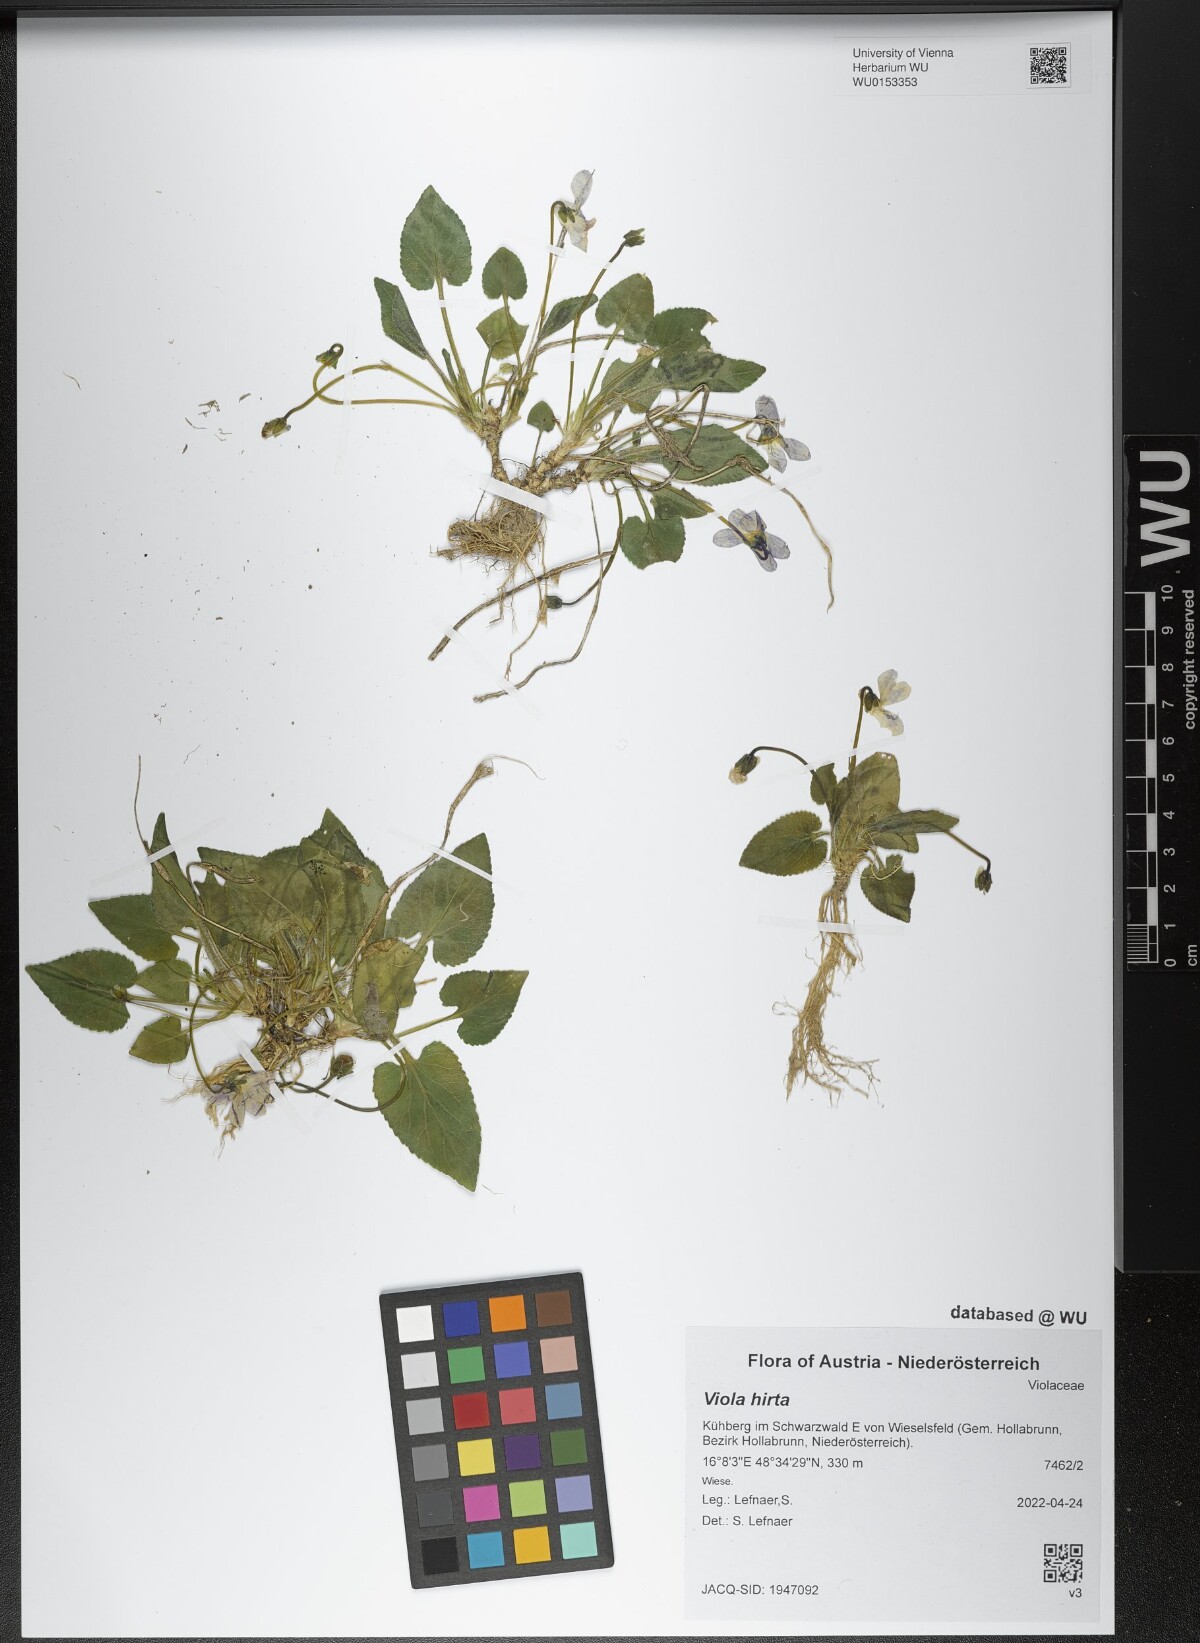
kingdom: Plantae
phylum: Tracheophyta
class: Magnoliopsida
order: Malpighiales
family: Violaceae
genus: Viola
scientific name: Viola hirta
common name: Hairy violet
